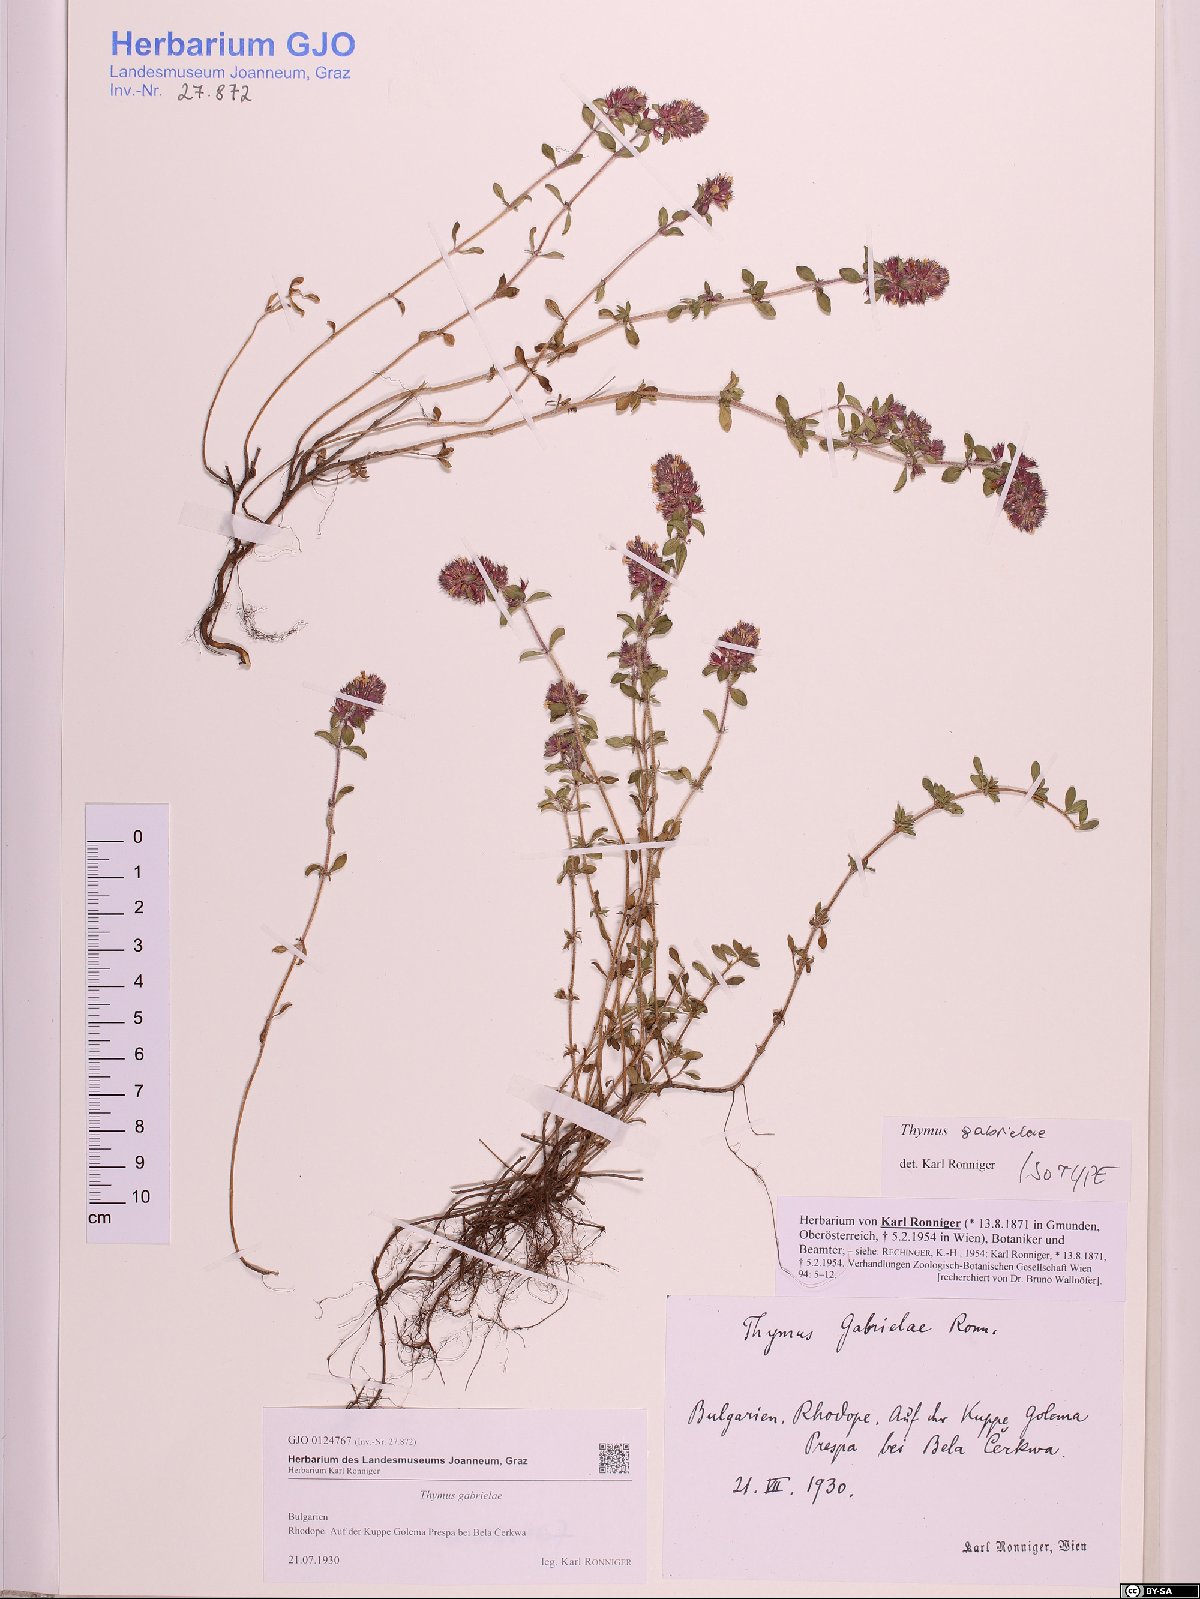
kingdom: Plantae
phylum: Tracheophyta
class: Magnoliopsida
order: Lamiales
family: Lamiaceae
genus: Thymus
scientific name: Thymus thracicus
